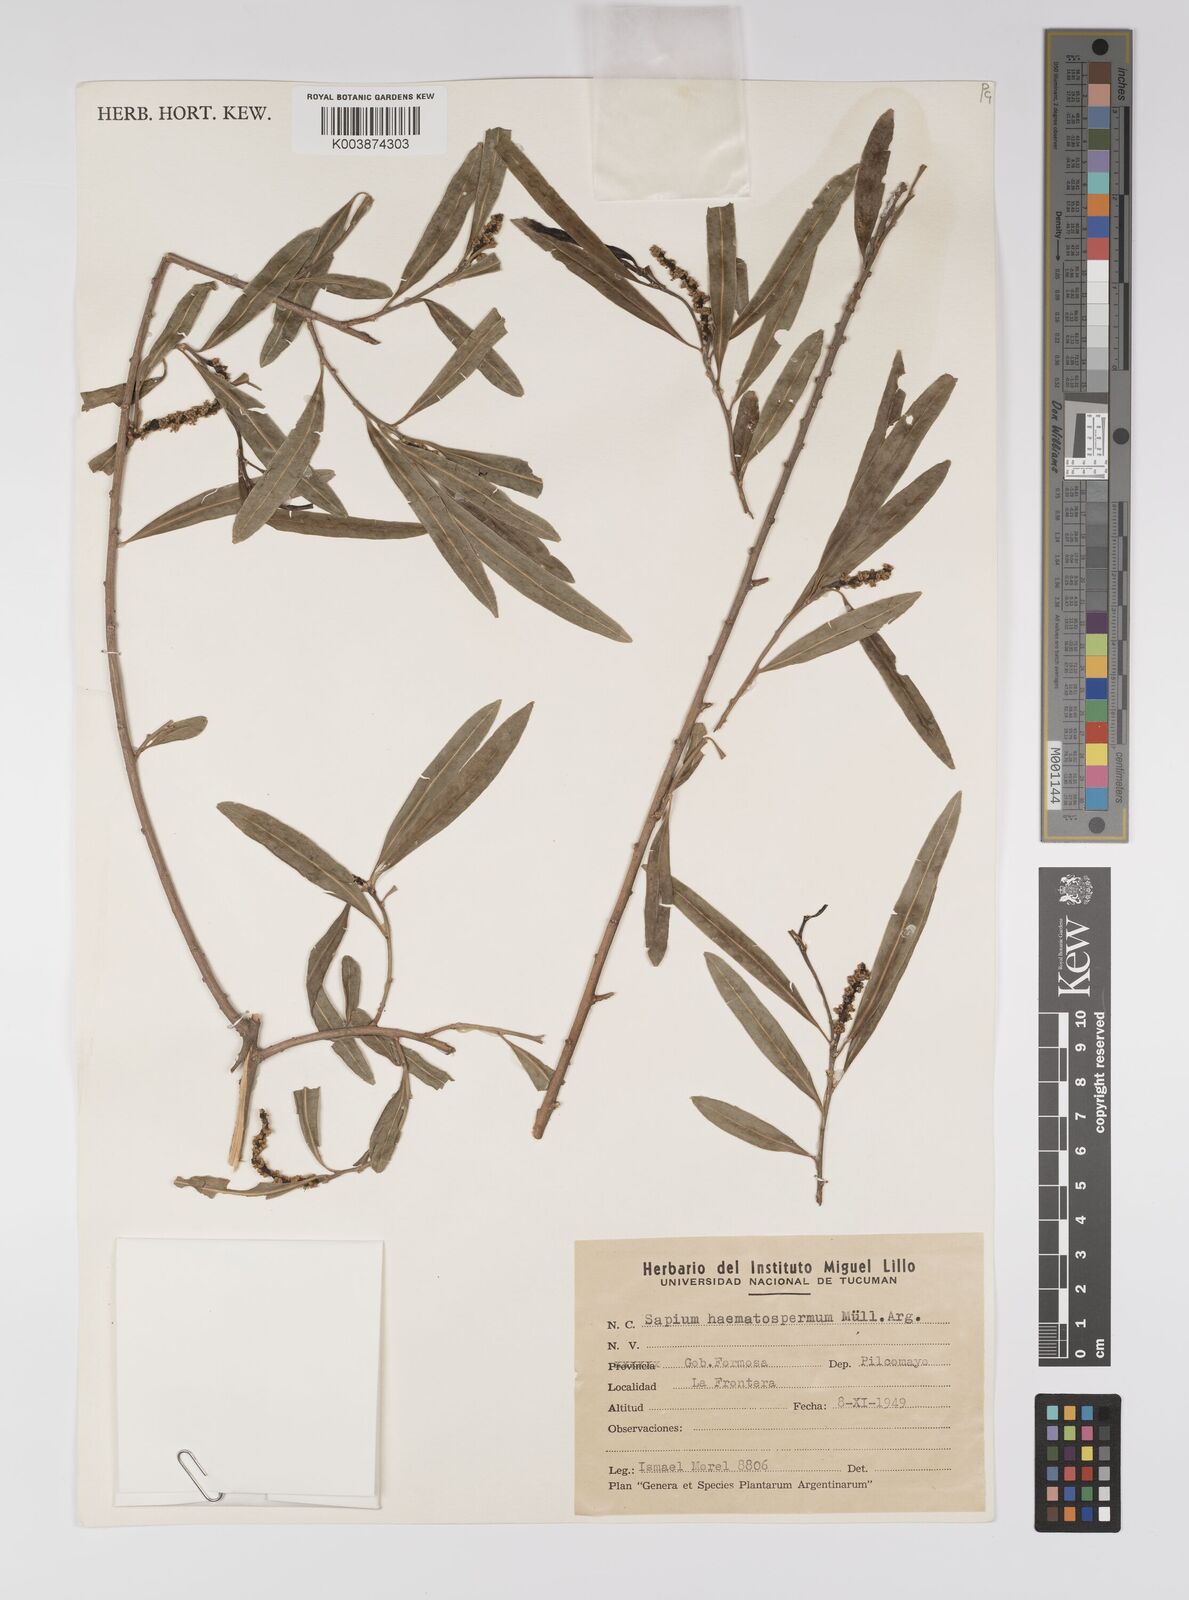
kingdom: Plantae
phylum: Tracheophyta
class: Magnoliopsida
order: Malpighiales
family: Euphorbiaceae
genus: Sapium
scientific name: Sapium haematospermum
